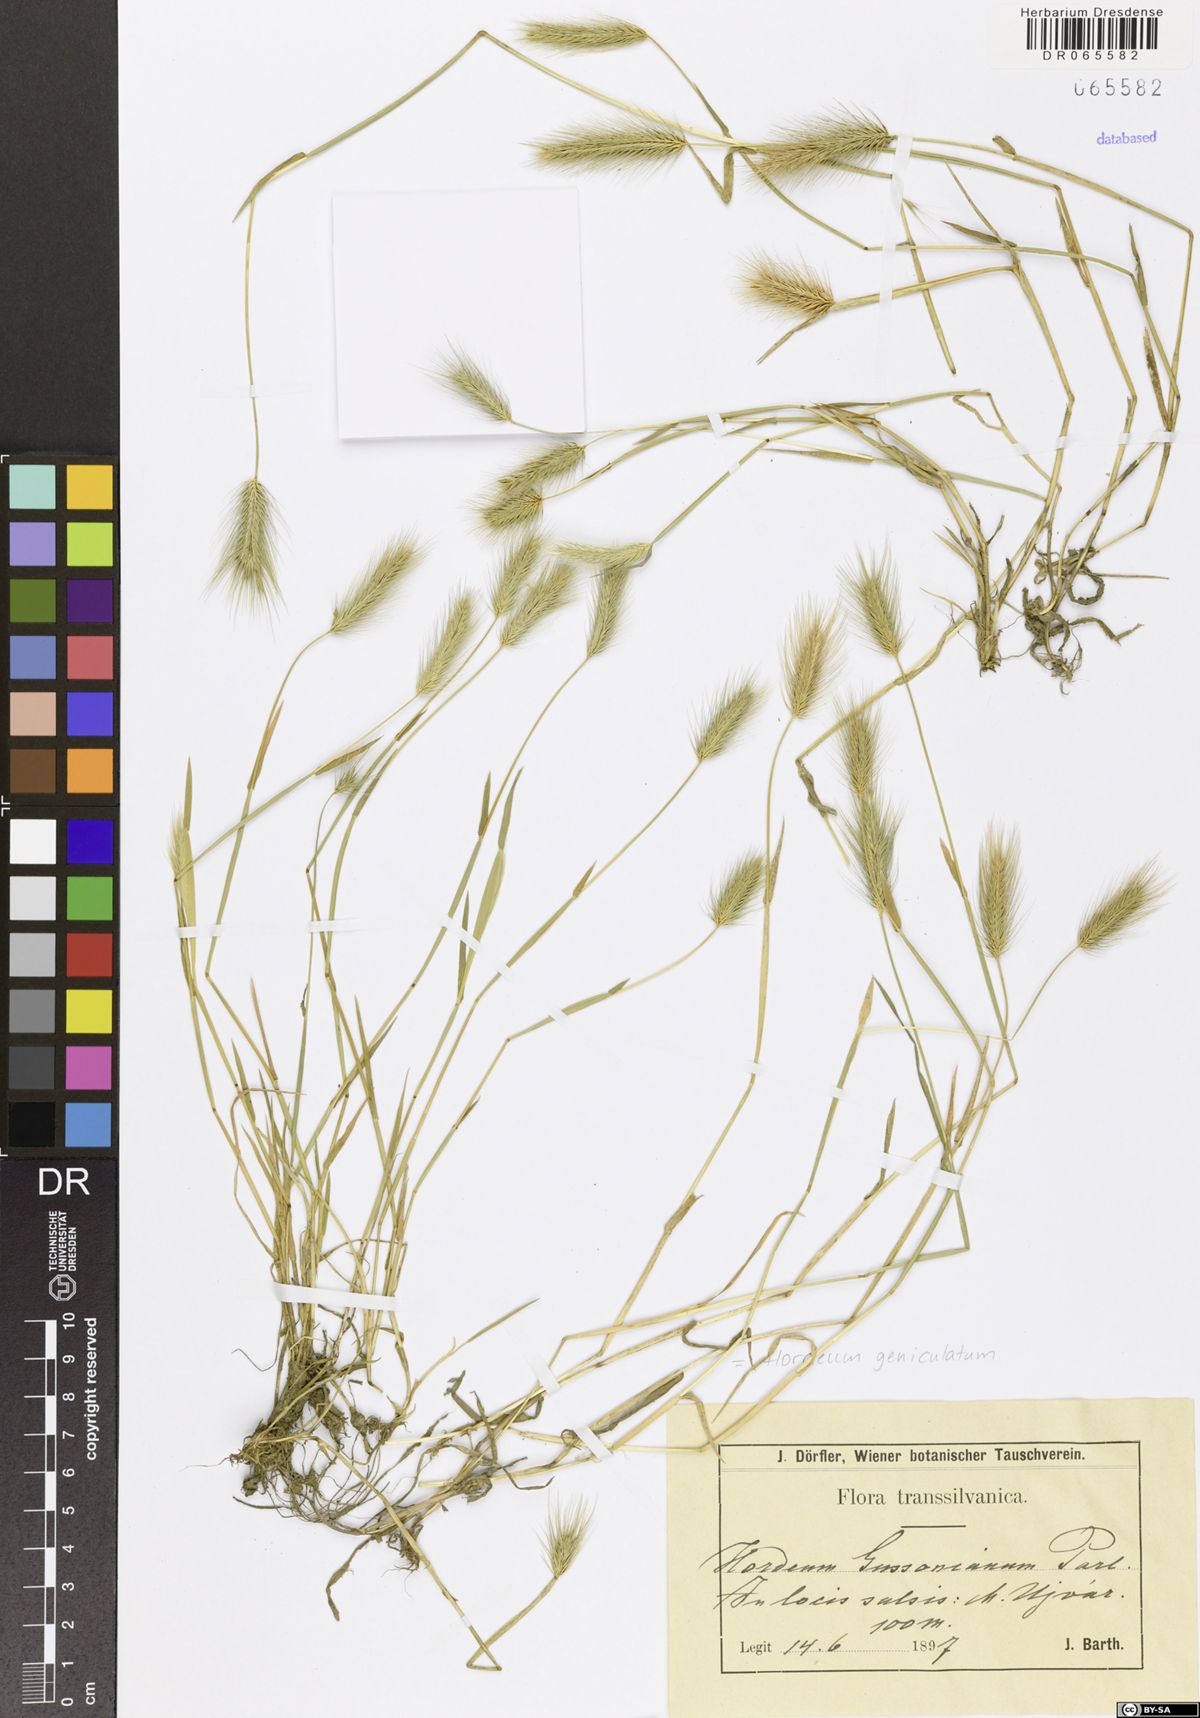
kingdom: Plantae
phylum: Tracheophyta
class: Liliopsida
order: Poales
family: Poaceae
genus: Hordeum
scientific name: Hordeum marinum
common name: Sea barley
